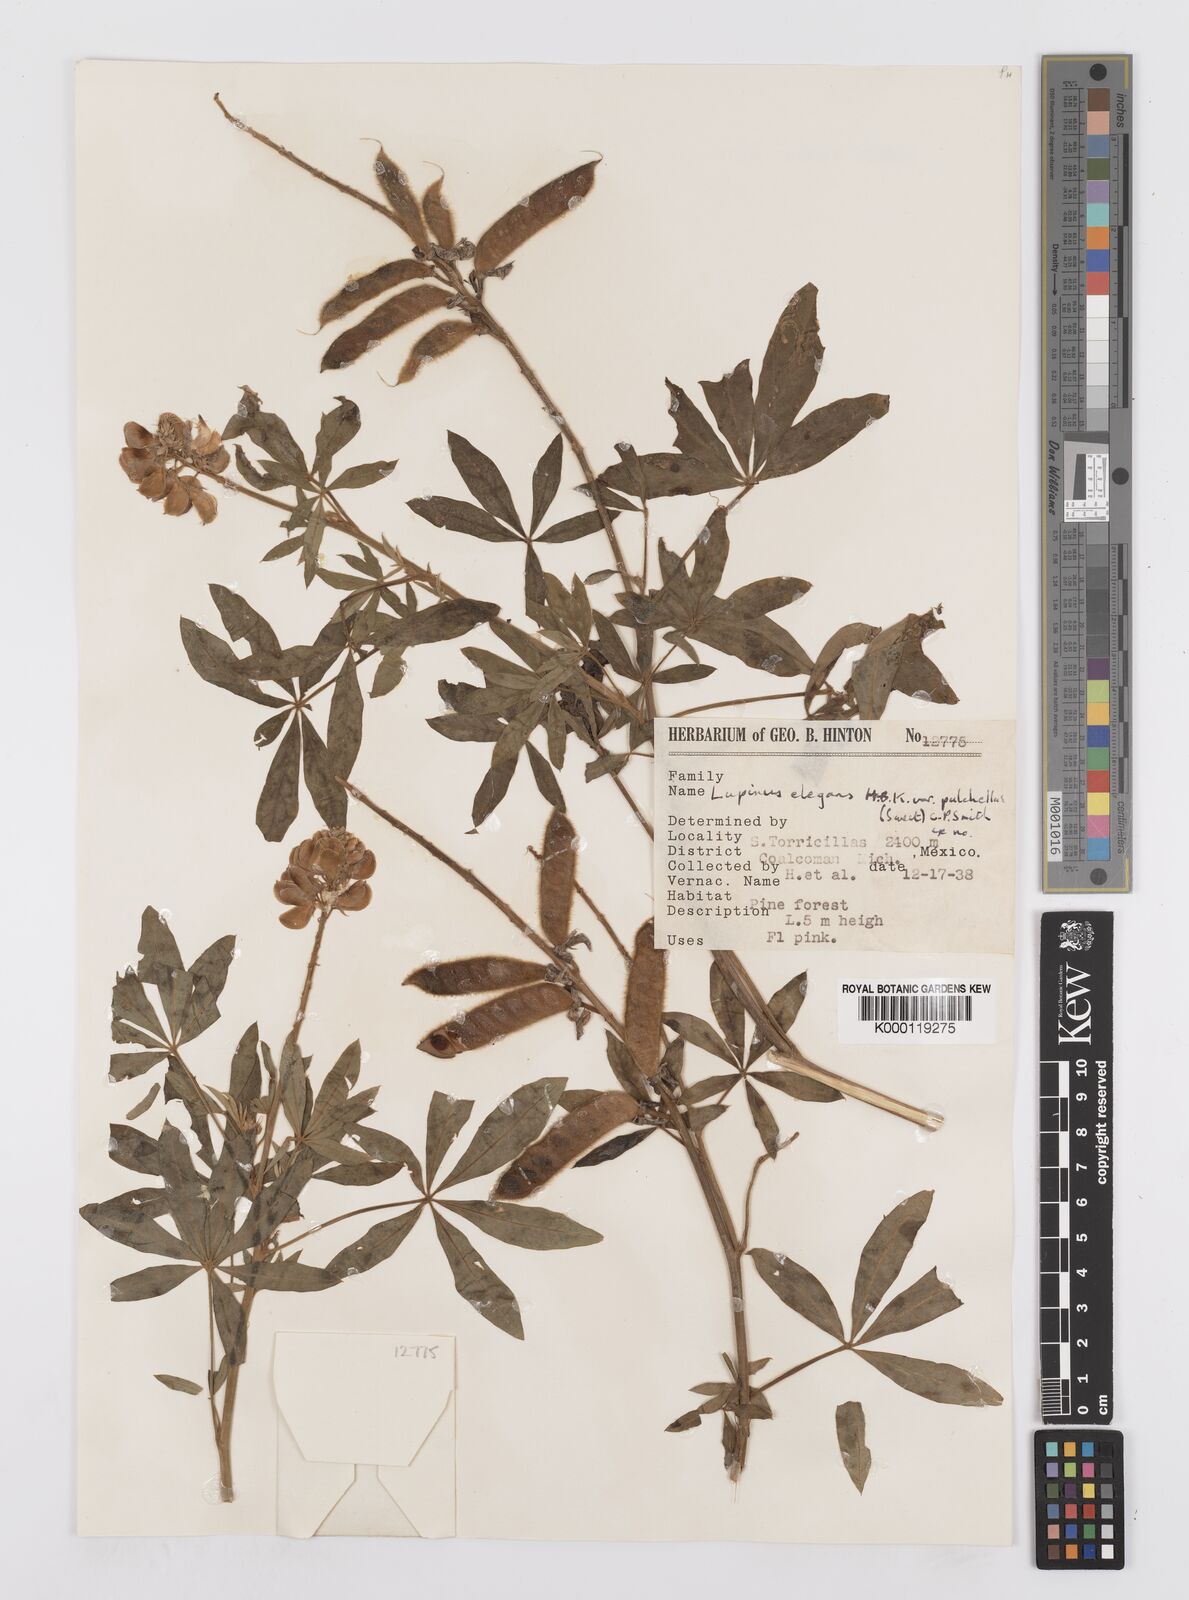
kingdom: Plantae
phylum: Tracheophyta
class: Magnoliopsida
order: Fabales
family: Fabaceae
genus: Lupinus
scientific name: Lupinus elegans
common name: Mexican lupine
